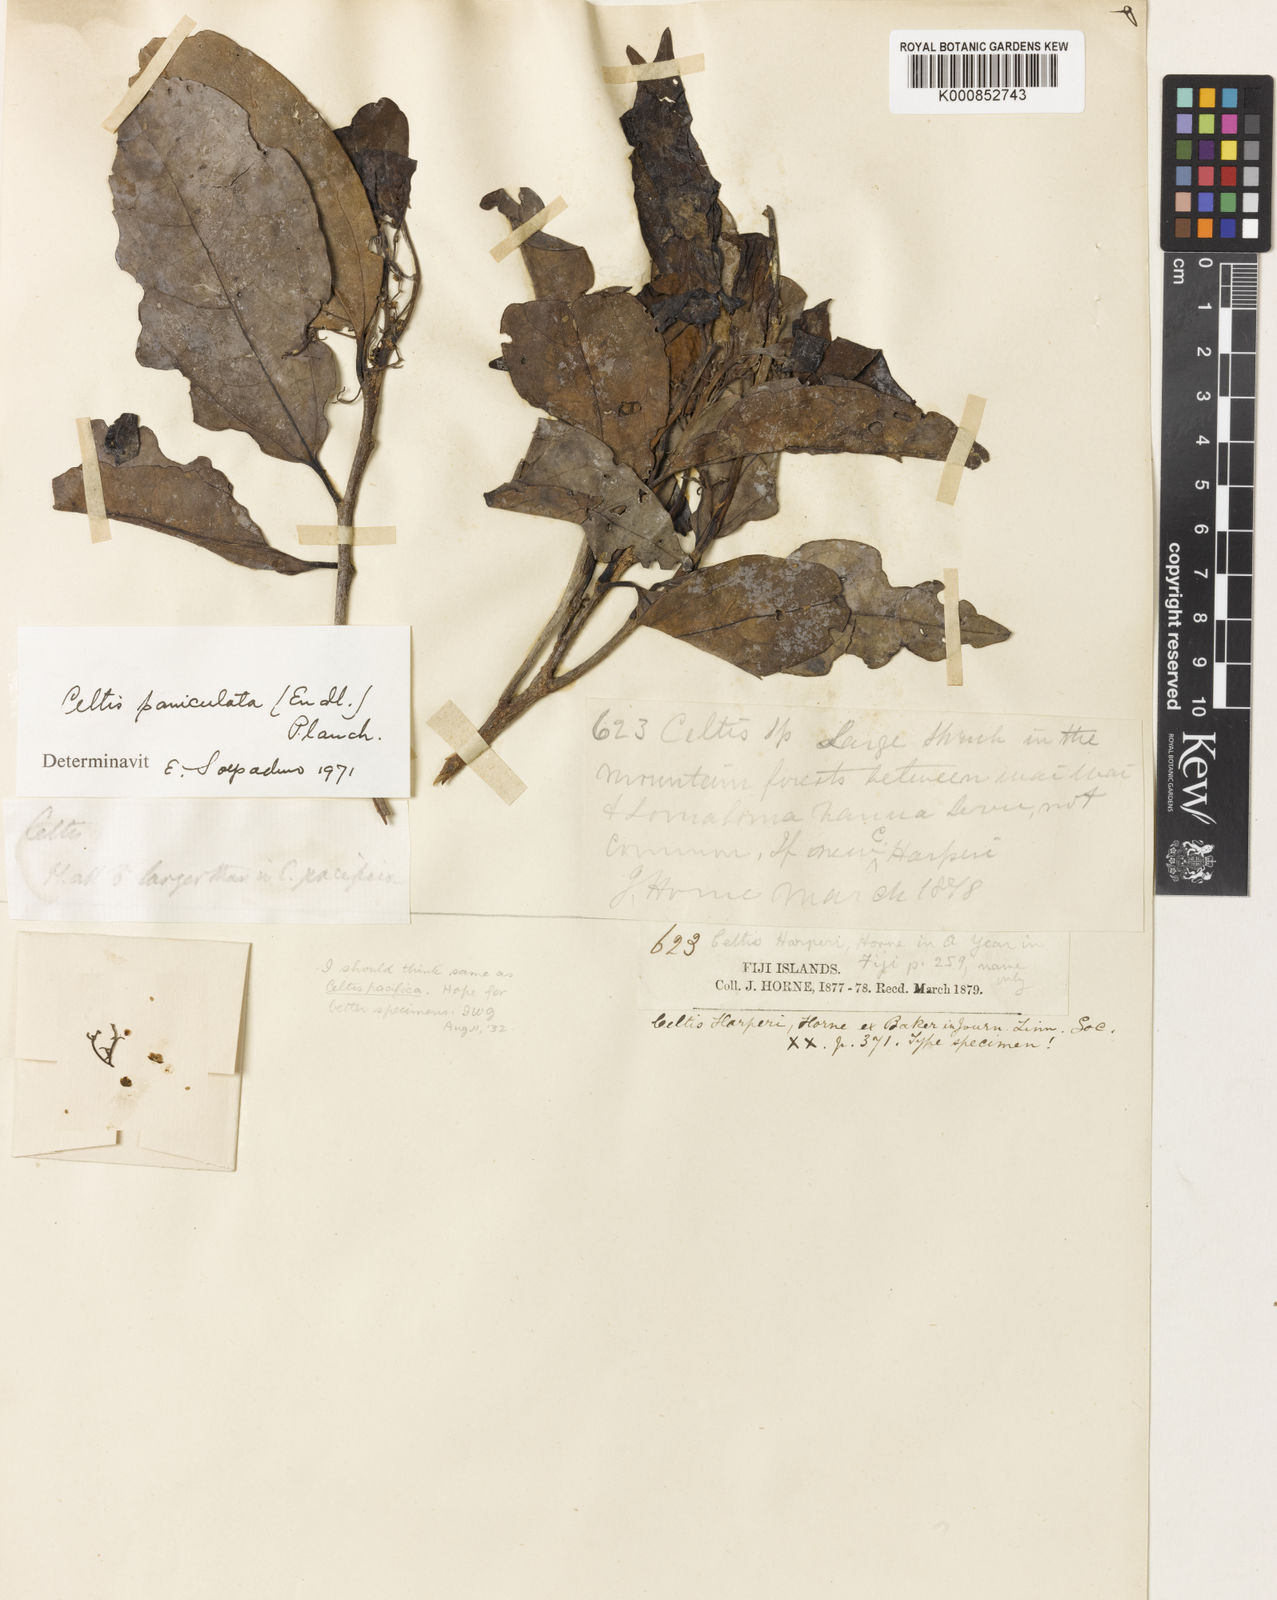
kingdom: Plantae
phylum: Tracheophyta
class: Magnoliopsida
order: Rosales
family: Cannabaceae
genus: Celtis
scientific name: Celtis harperi
